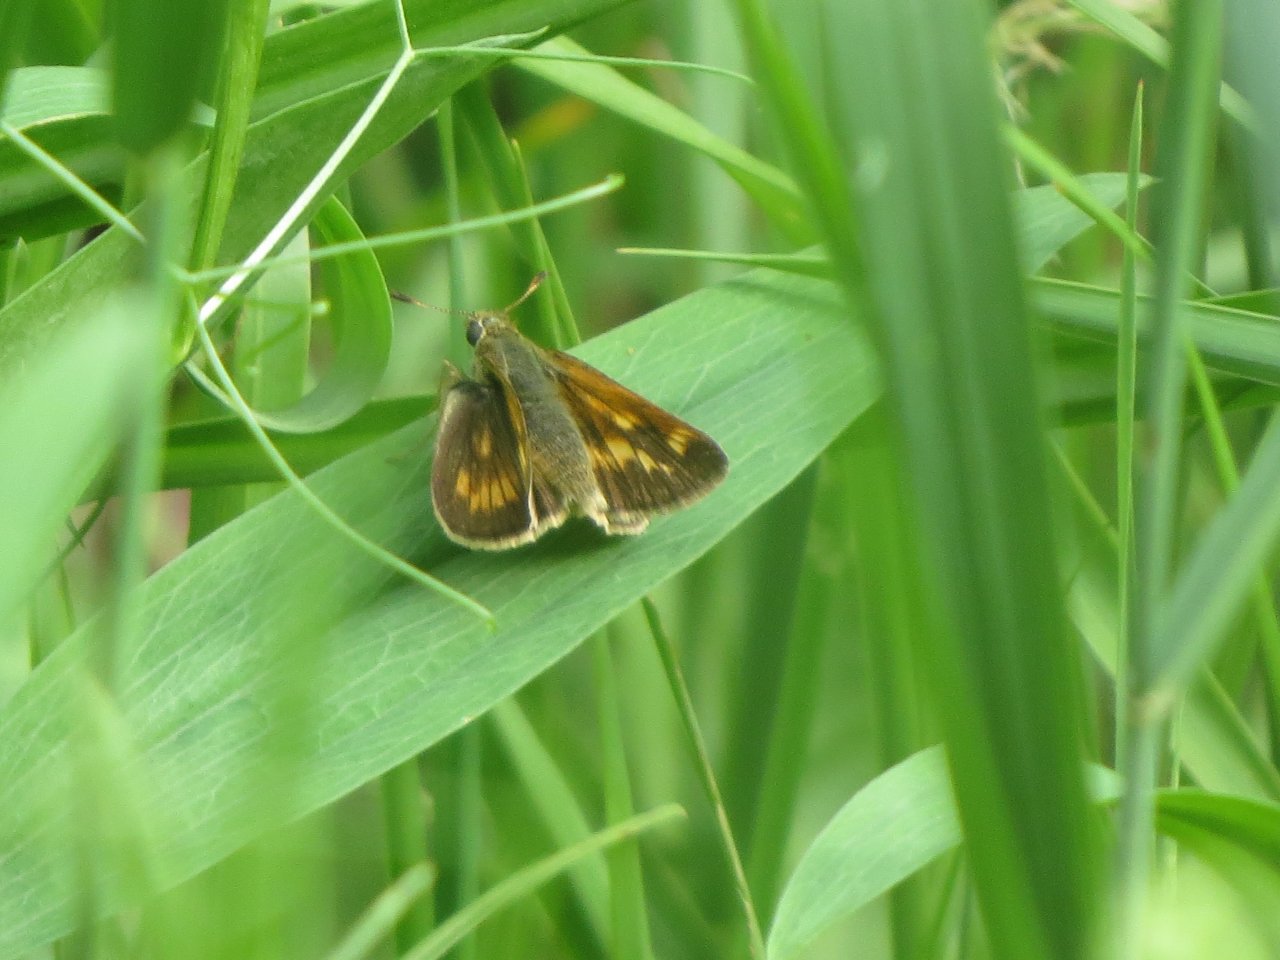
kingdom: Animalia
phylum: Arthropoda
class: Insecta
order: Lepidoptera
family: Hesperiidae
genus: Polites
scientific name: Polites
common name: Long Dash Skipper
